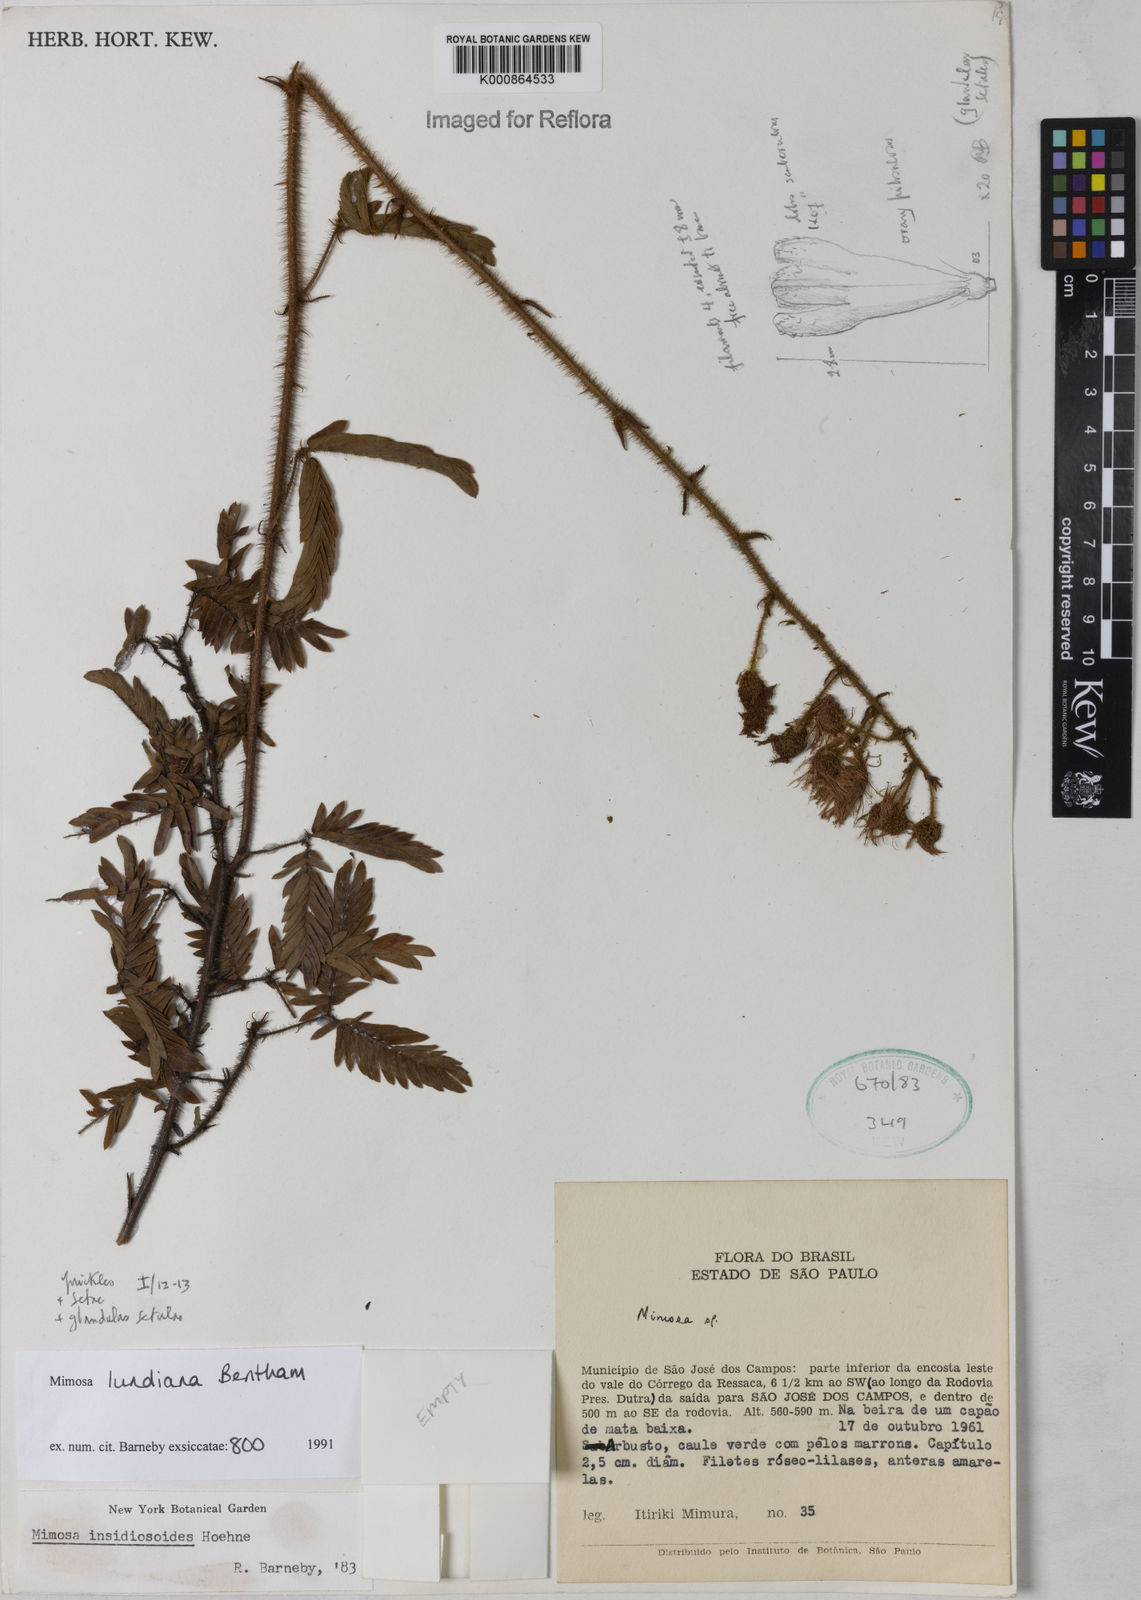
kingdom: Plantae
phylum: Tracheophyta
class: Magnoliopsida
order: Fabales
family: Fabaceae
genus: Mimosa
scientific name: Mimosa lundiana
